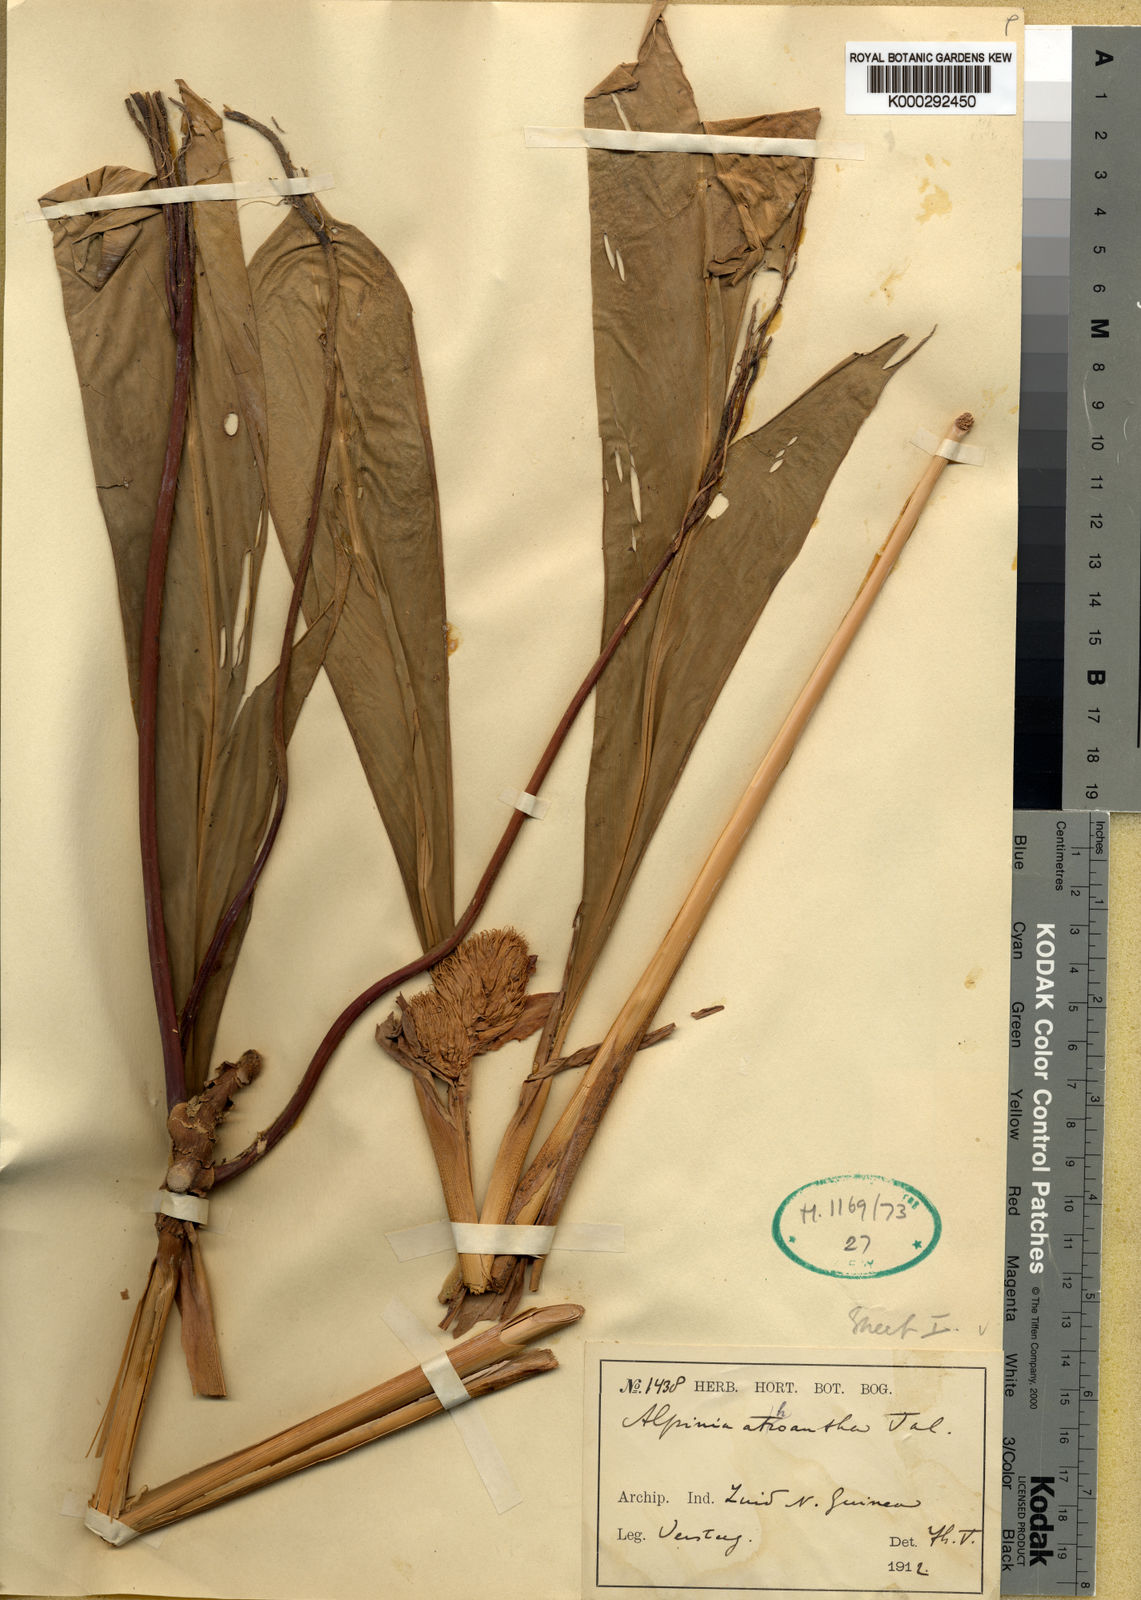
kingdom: Plantae
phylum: Tracheophyta
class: Liliopsida
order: Zingiberales
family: Zingiberaceae
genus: Alpinia
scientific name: Alpinia athroantha
